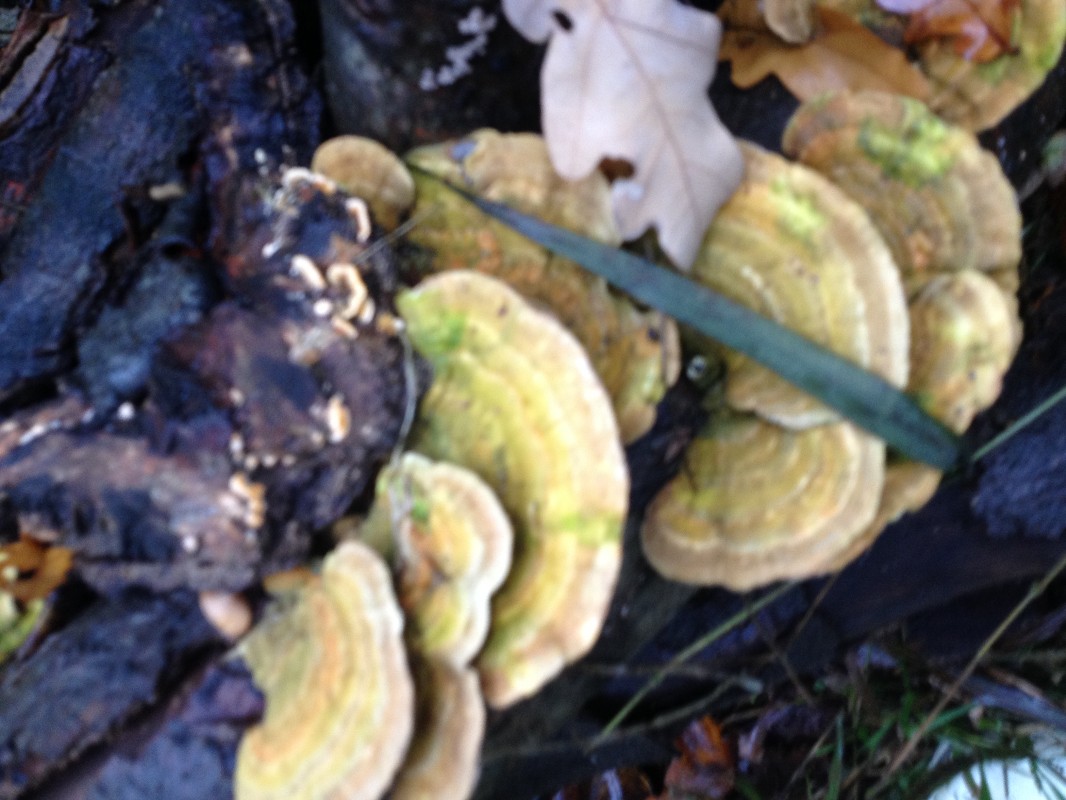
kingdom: Fungi
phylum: Basidiomycota
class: Agaricomycetes
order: Polyporales
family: Polyporaceae
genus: Trametes
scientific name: Trametes hirsuta
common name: håret læderporesvamp
